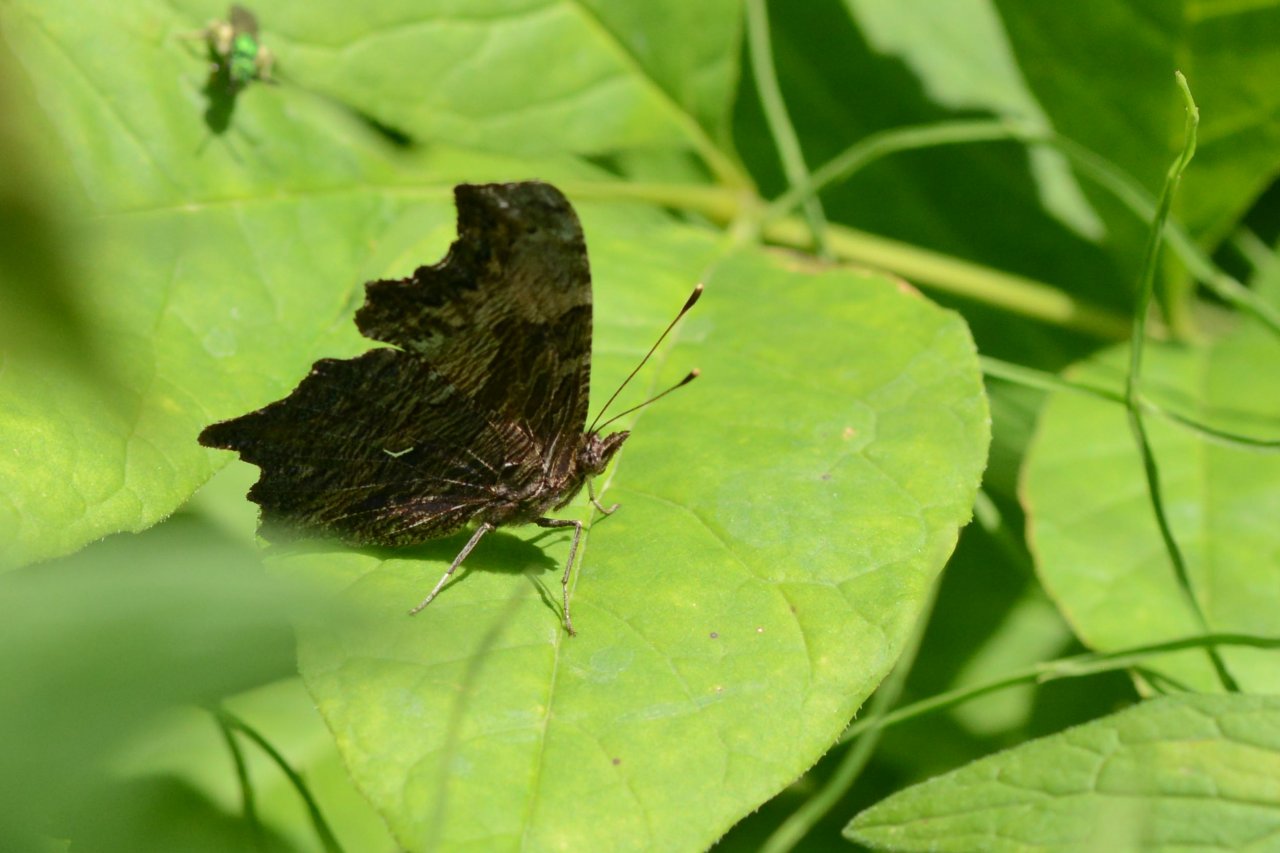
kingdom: Animalia
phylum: Arthropoda
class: Insecta
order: Lepidoptera
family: Nymphalidae
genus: Polygonia
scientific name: Polygonia progne
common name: Gray Comma
